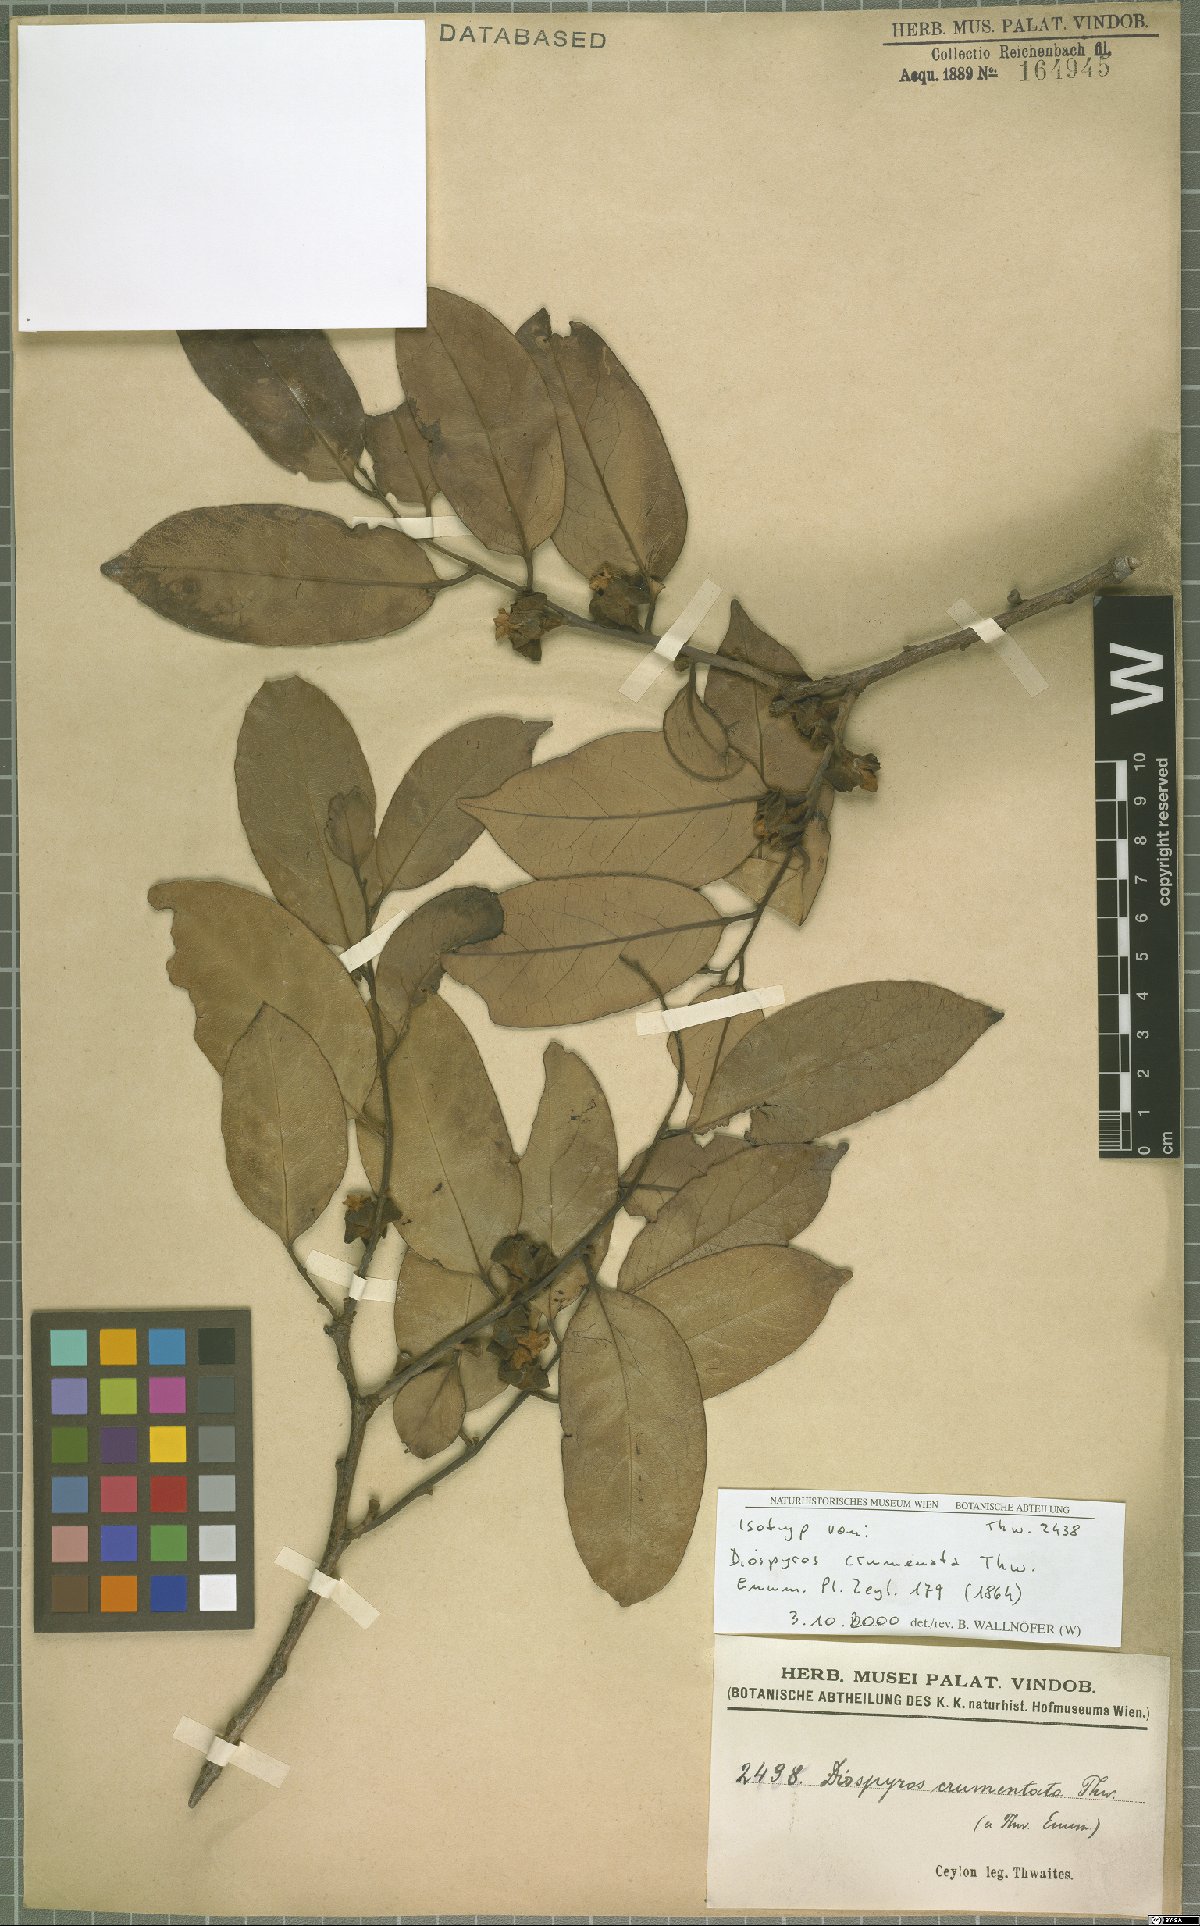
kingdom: Plantae
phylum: Tracheophyta
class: Magnoliopsida
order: Ericales
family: Ebenaceae
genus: Diospyros
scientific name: Diospyros crumenata
